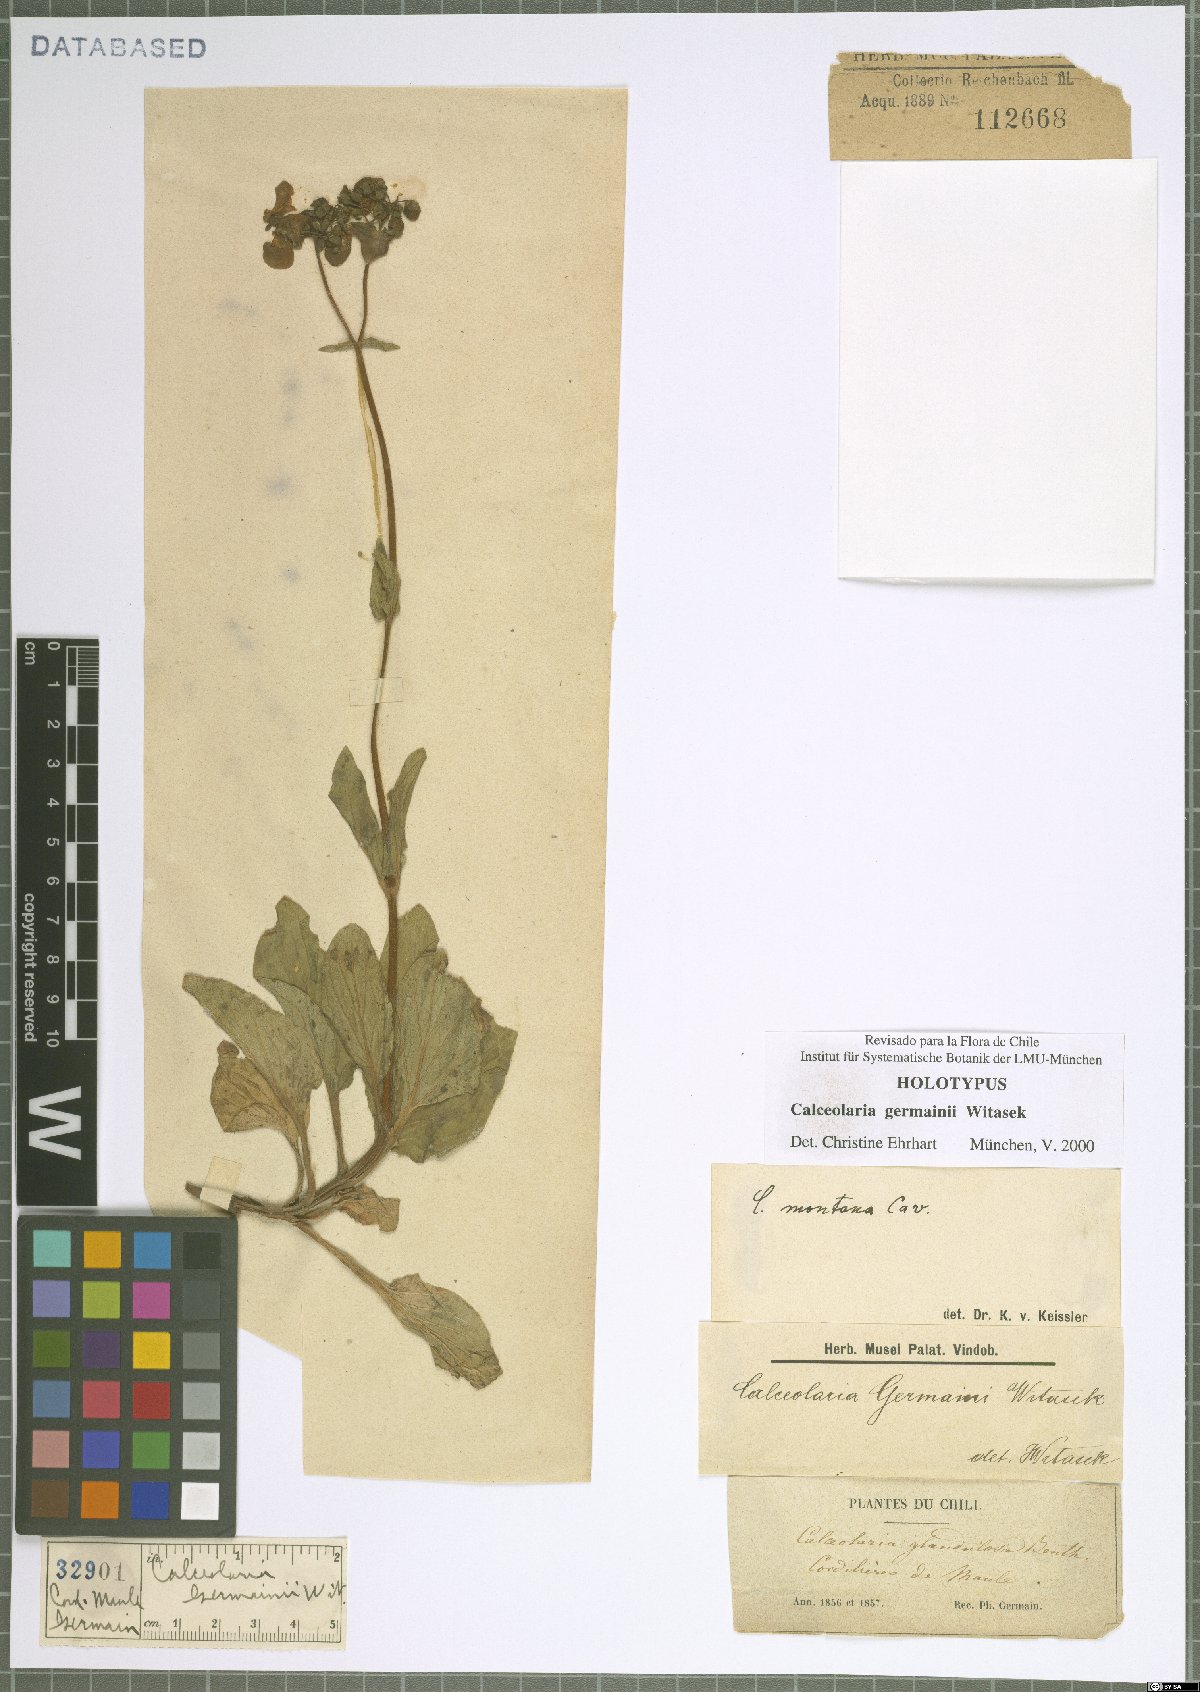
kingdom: Plantae
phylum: Tracheophyta
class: Magnoliopsida
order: Lamiales
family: Calceolariaceae
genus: Calceolaria
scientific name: Calceolaria germainii
